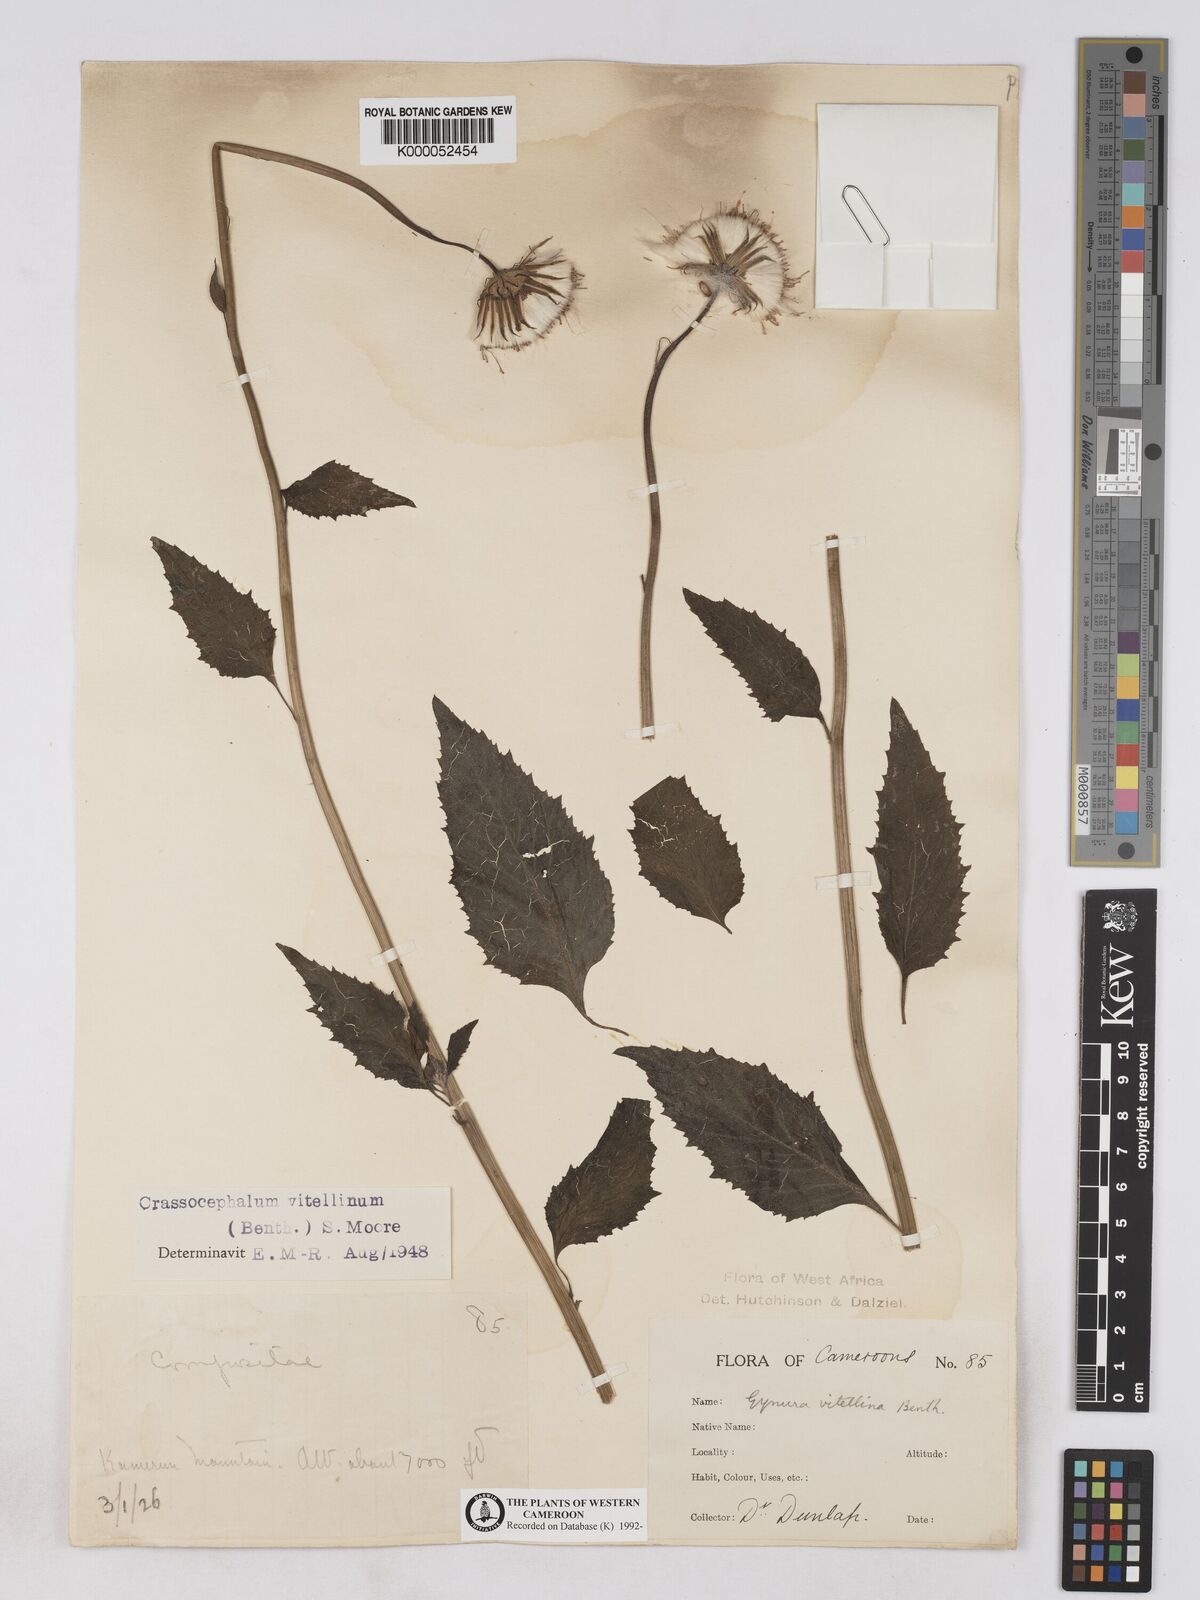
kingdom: Plantae
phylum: Tracheophyta
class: Magnoliopsida
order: Asterales
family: Asteraceae
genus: Crassocephalum
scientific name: Crassocephalum bougheyanum
